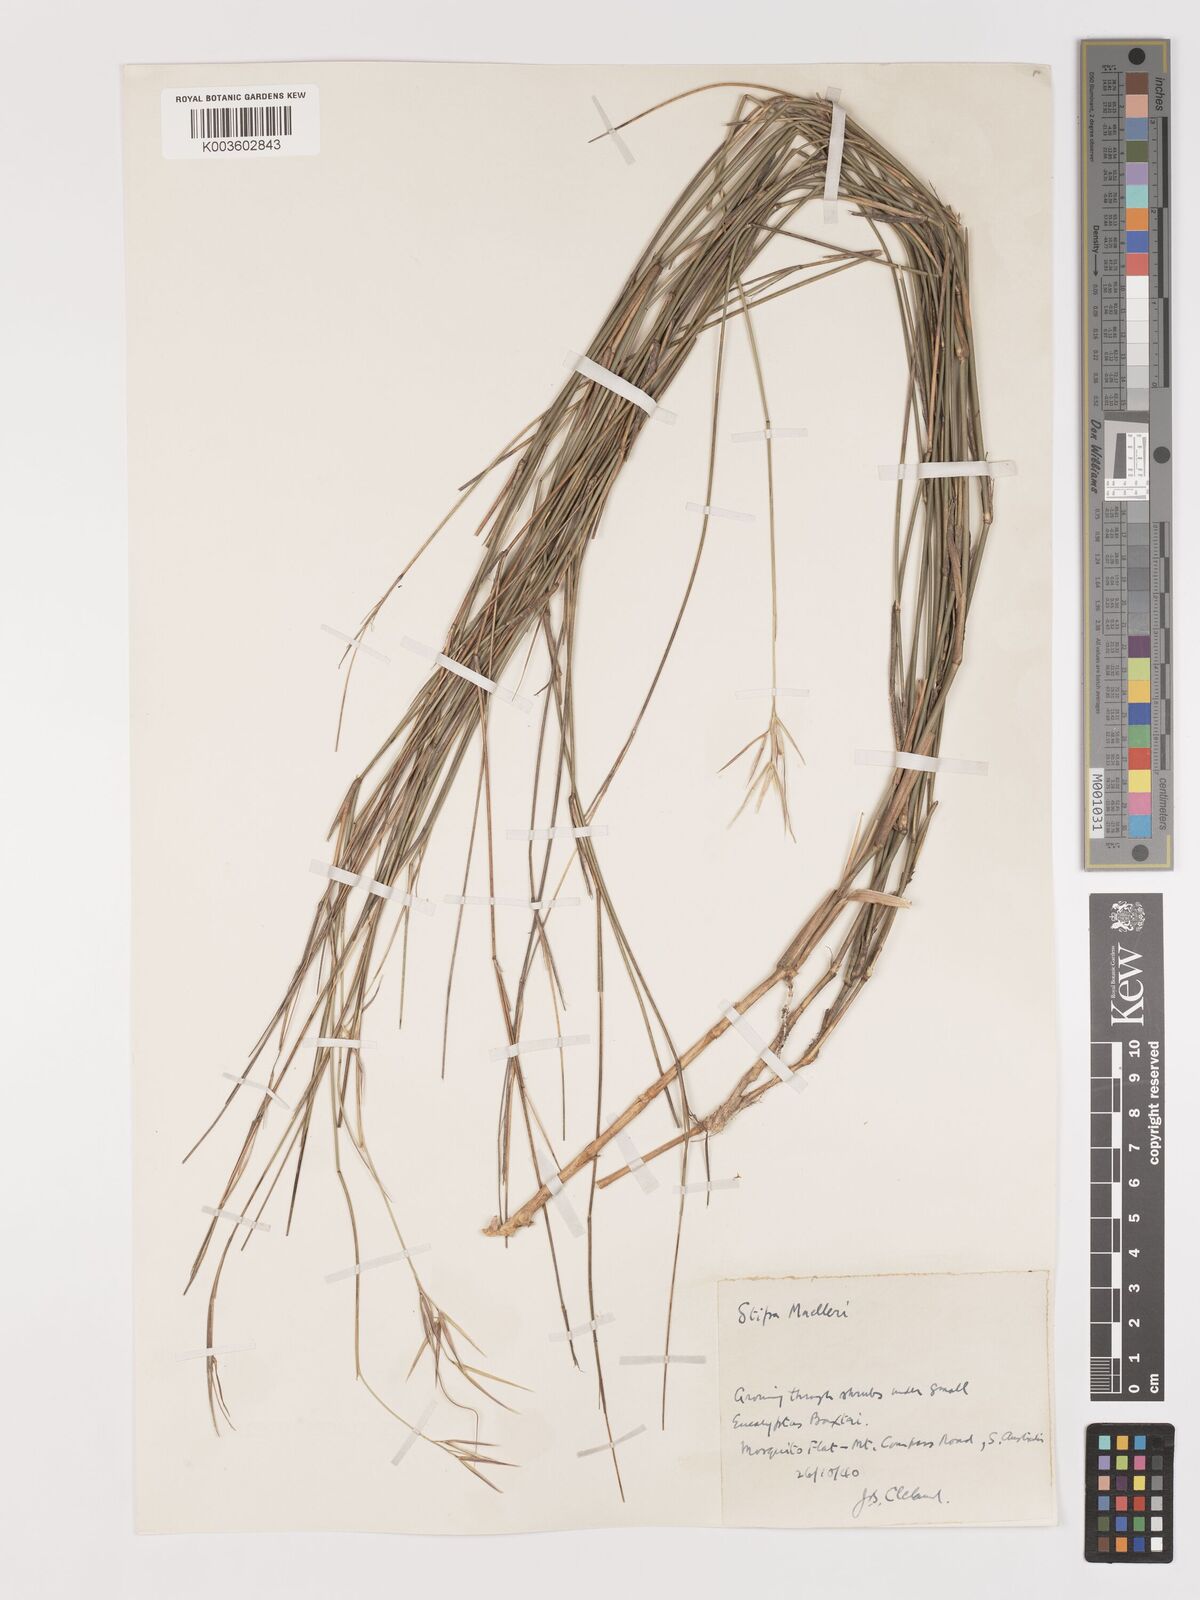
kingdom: Plantae
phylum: Tracheophyta
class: Liliopsida
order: Poales
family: Poaceae
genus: Austrostipa
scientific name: Austrostipa muelleri
